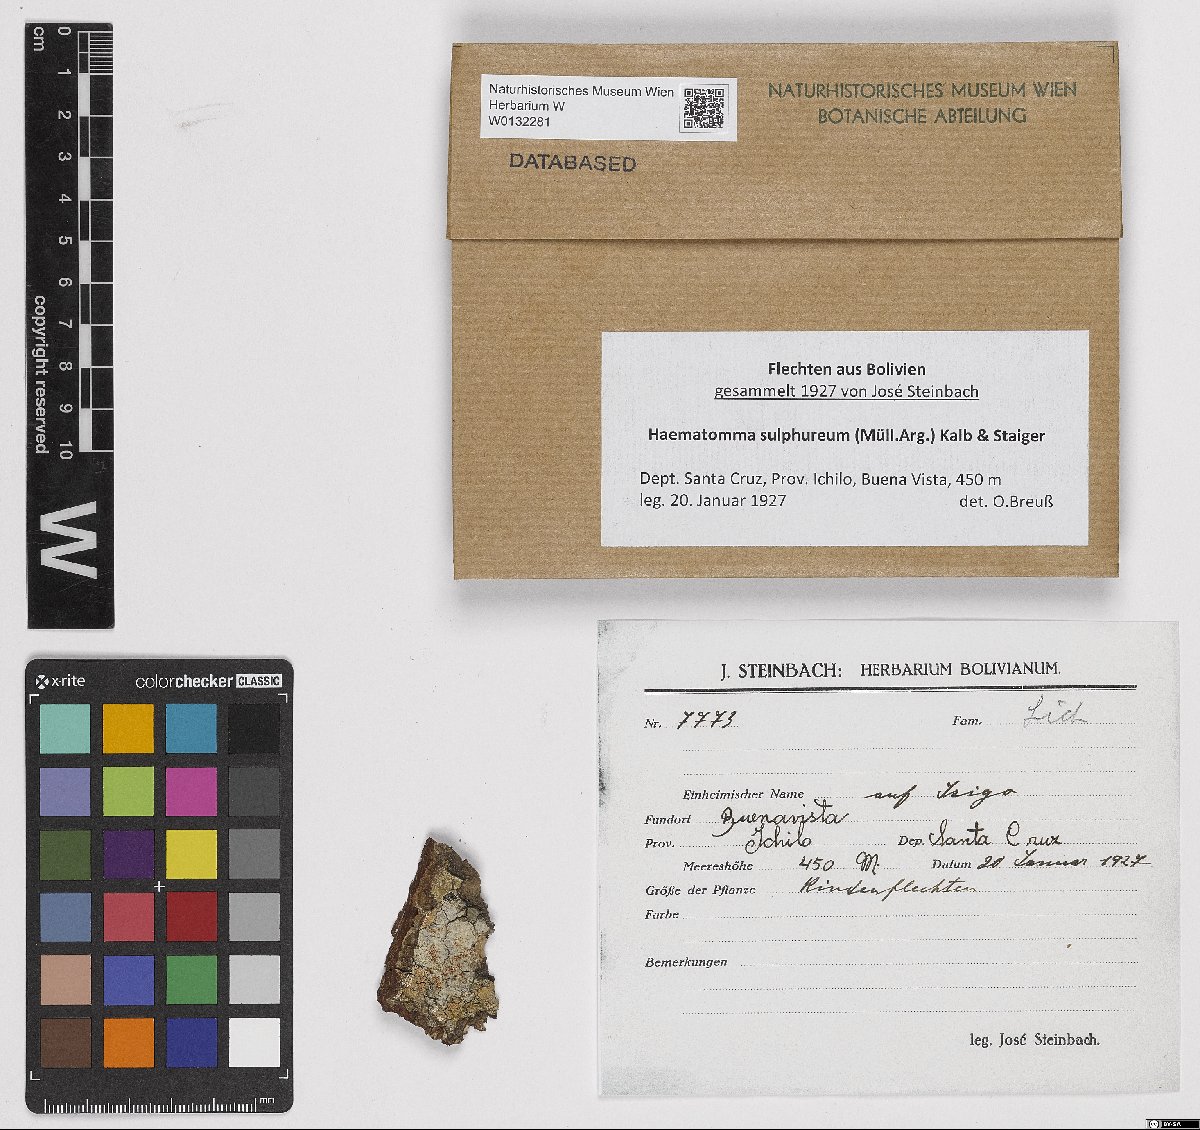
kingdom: Fungi
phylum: Ascomycota
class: Lecanoromycetes
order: Lecanorales
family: Haematommataceae
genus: Haematomma
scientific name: Haematomma sulphureum
